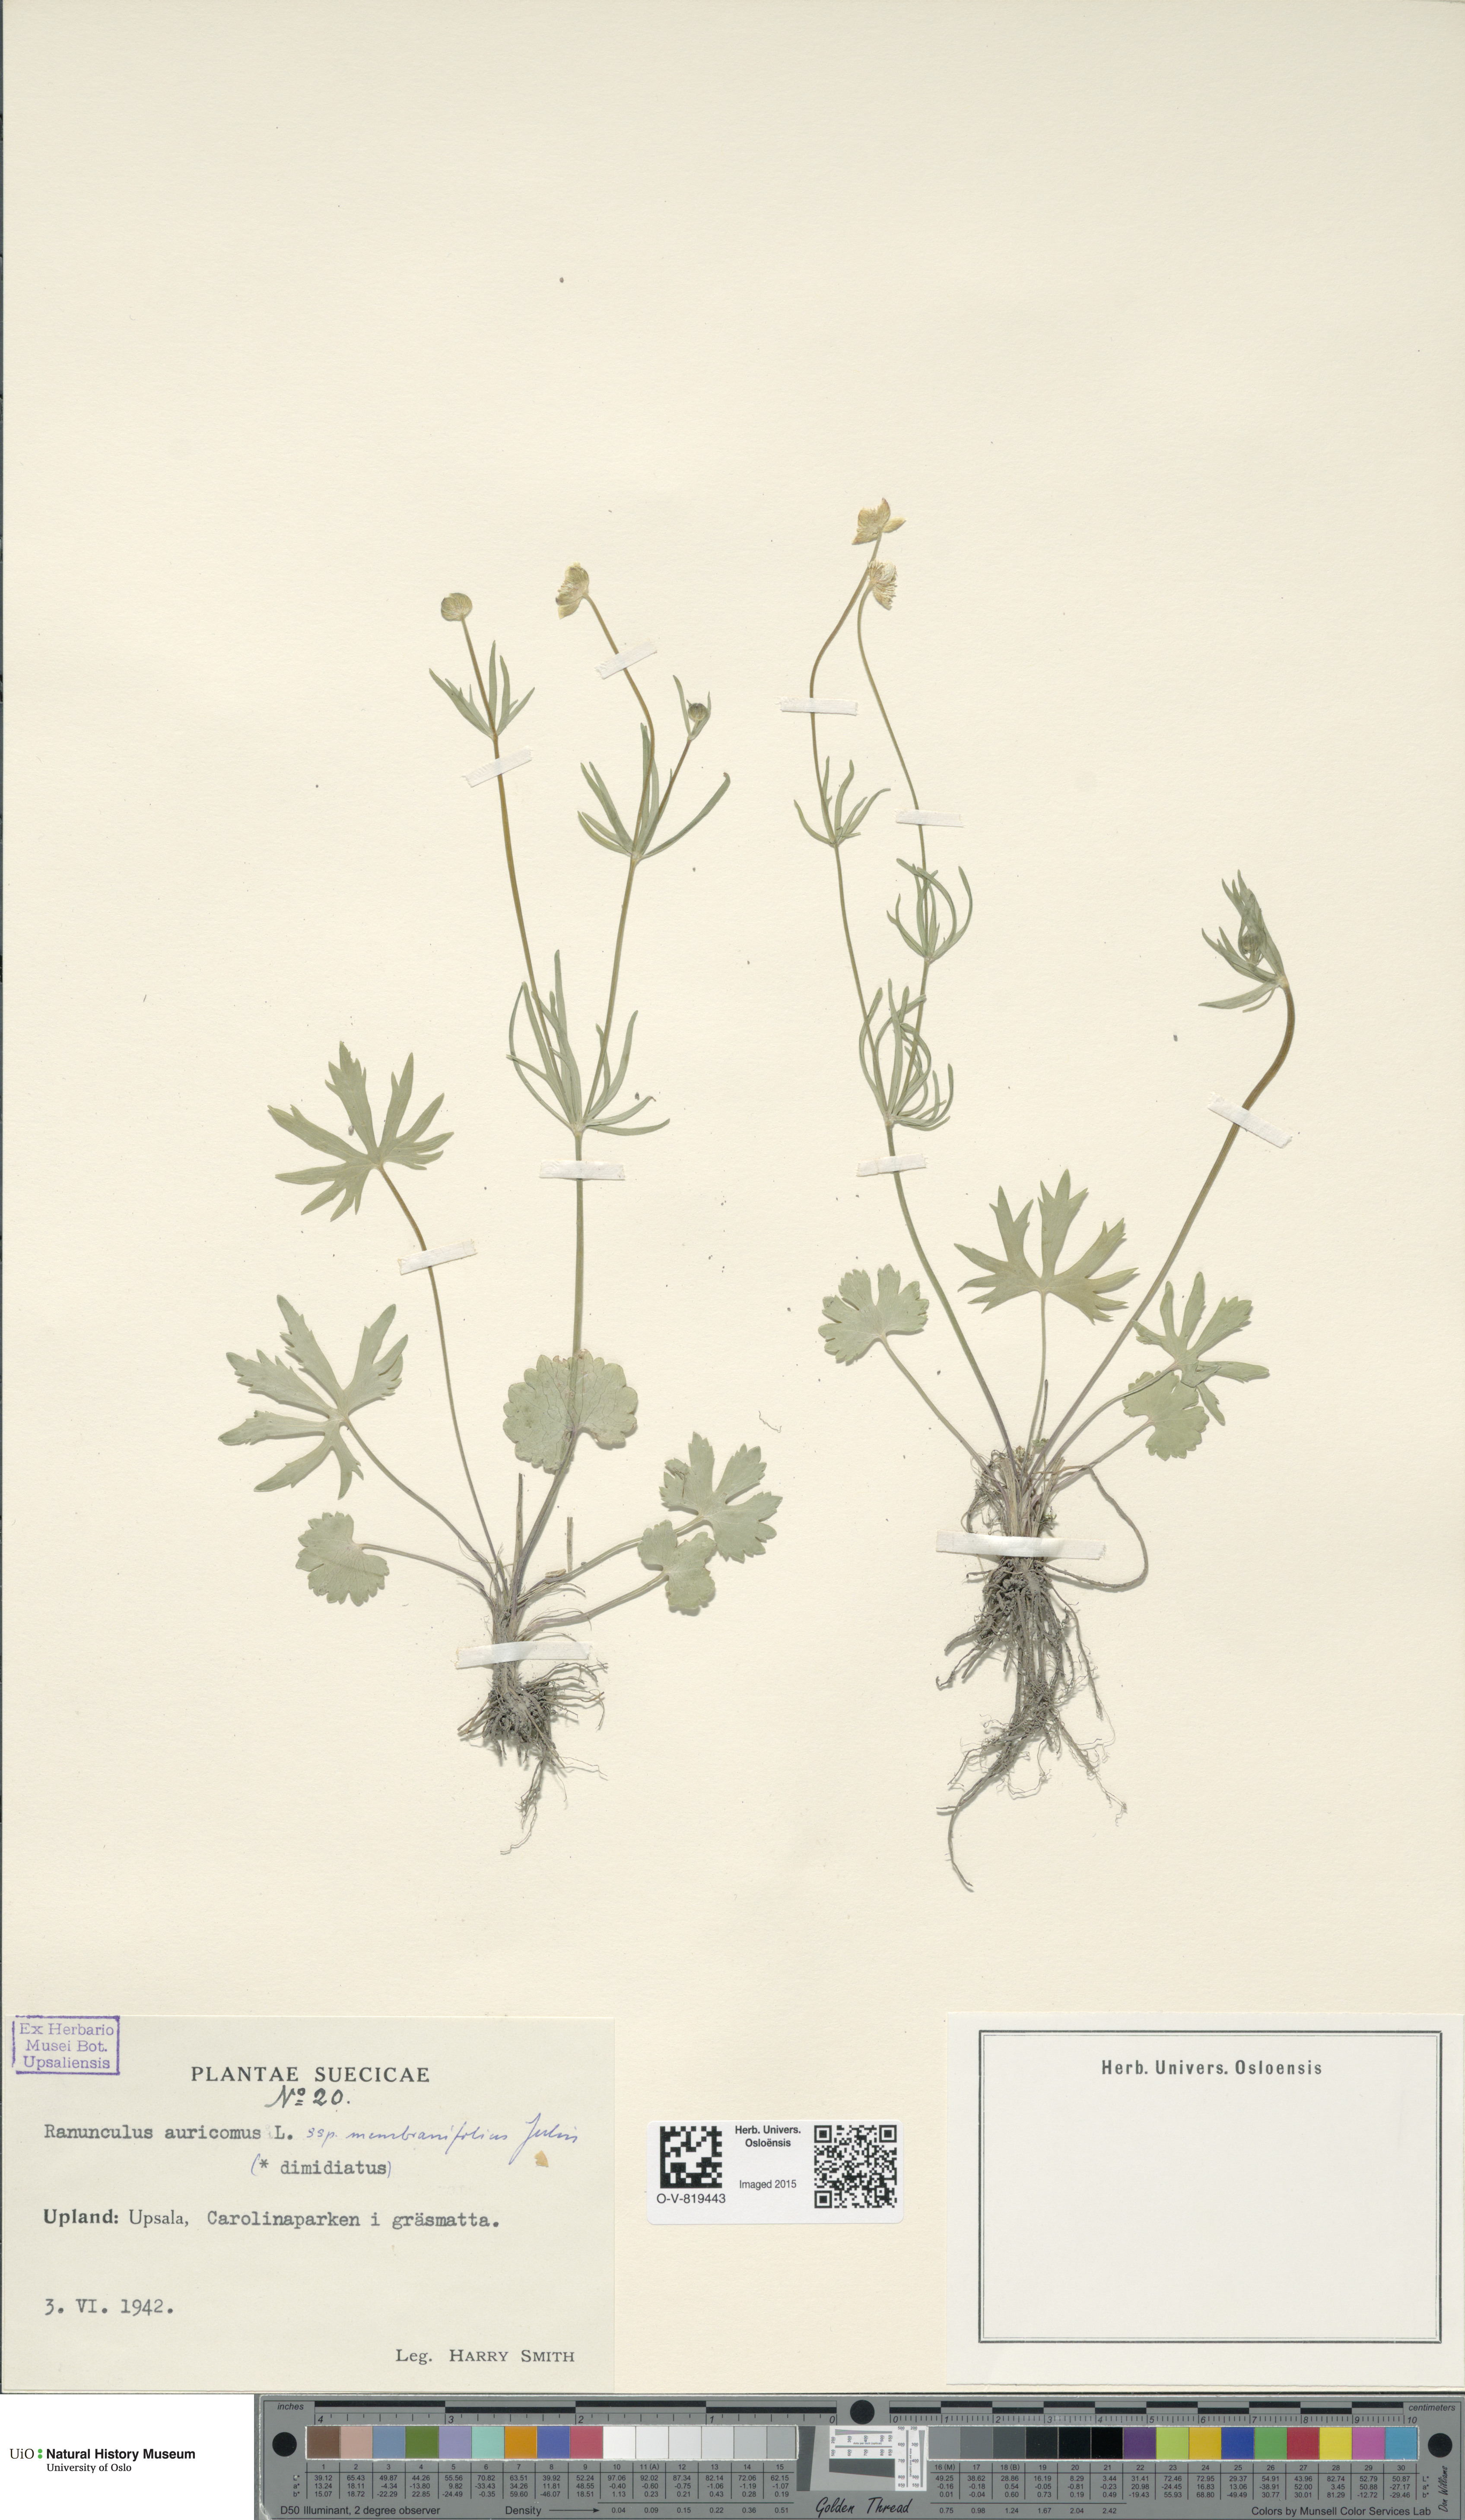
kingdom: Plantae
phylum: Tracheophyta
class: Magnoliopsida
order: Ranunculales
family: Ranunculaceae
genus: Ranunculus
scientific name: Ranunculus pergamentaceus
